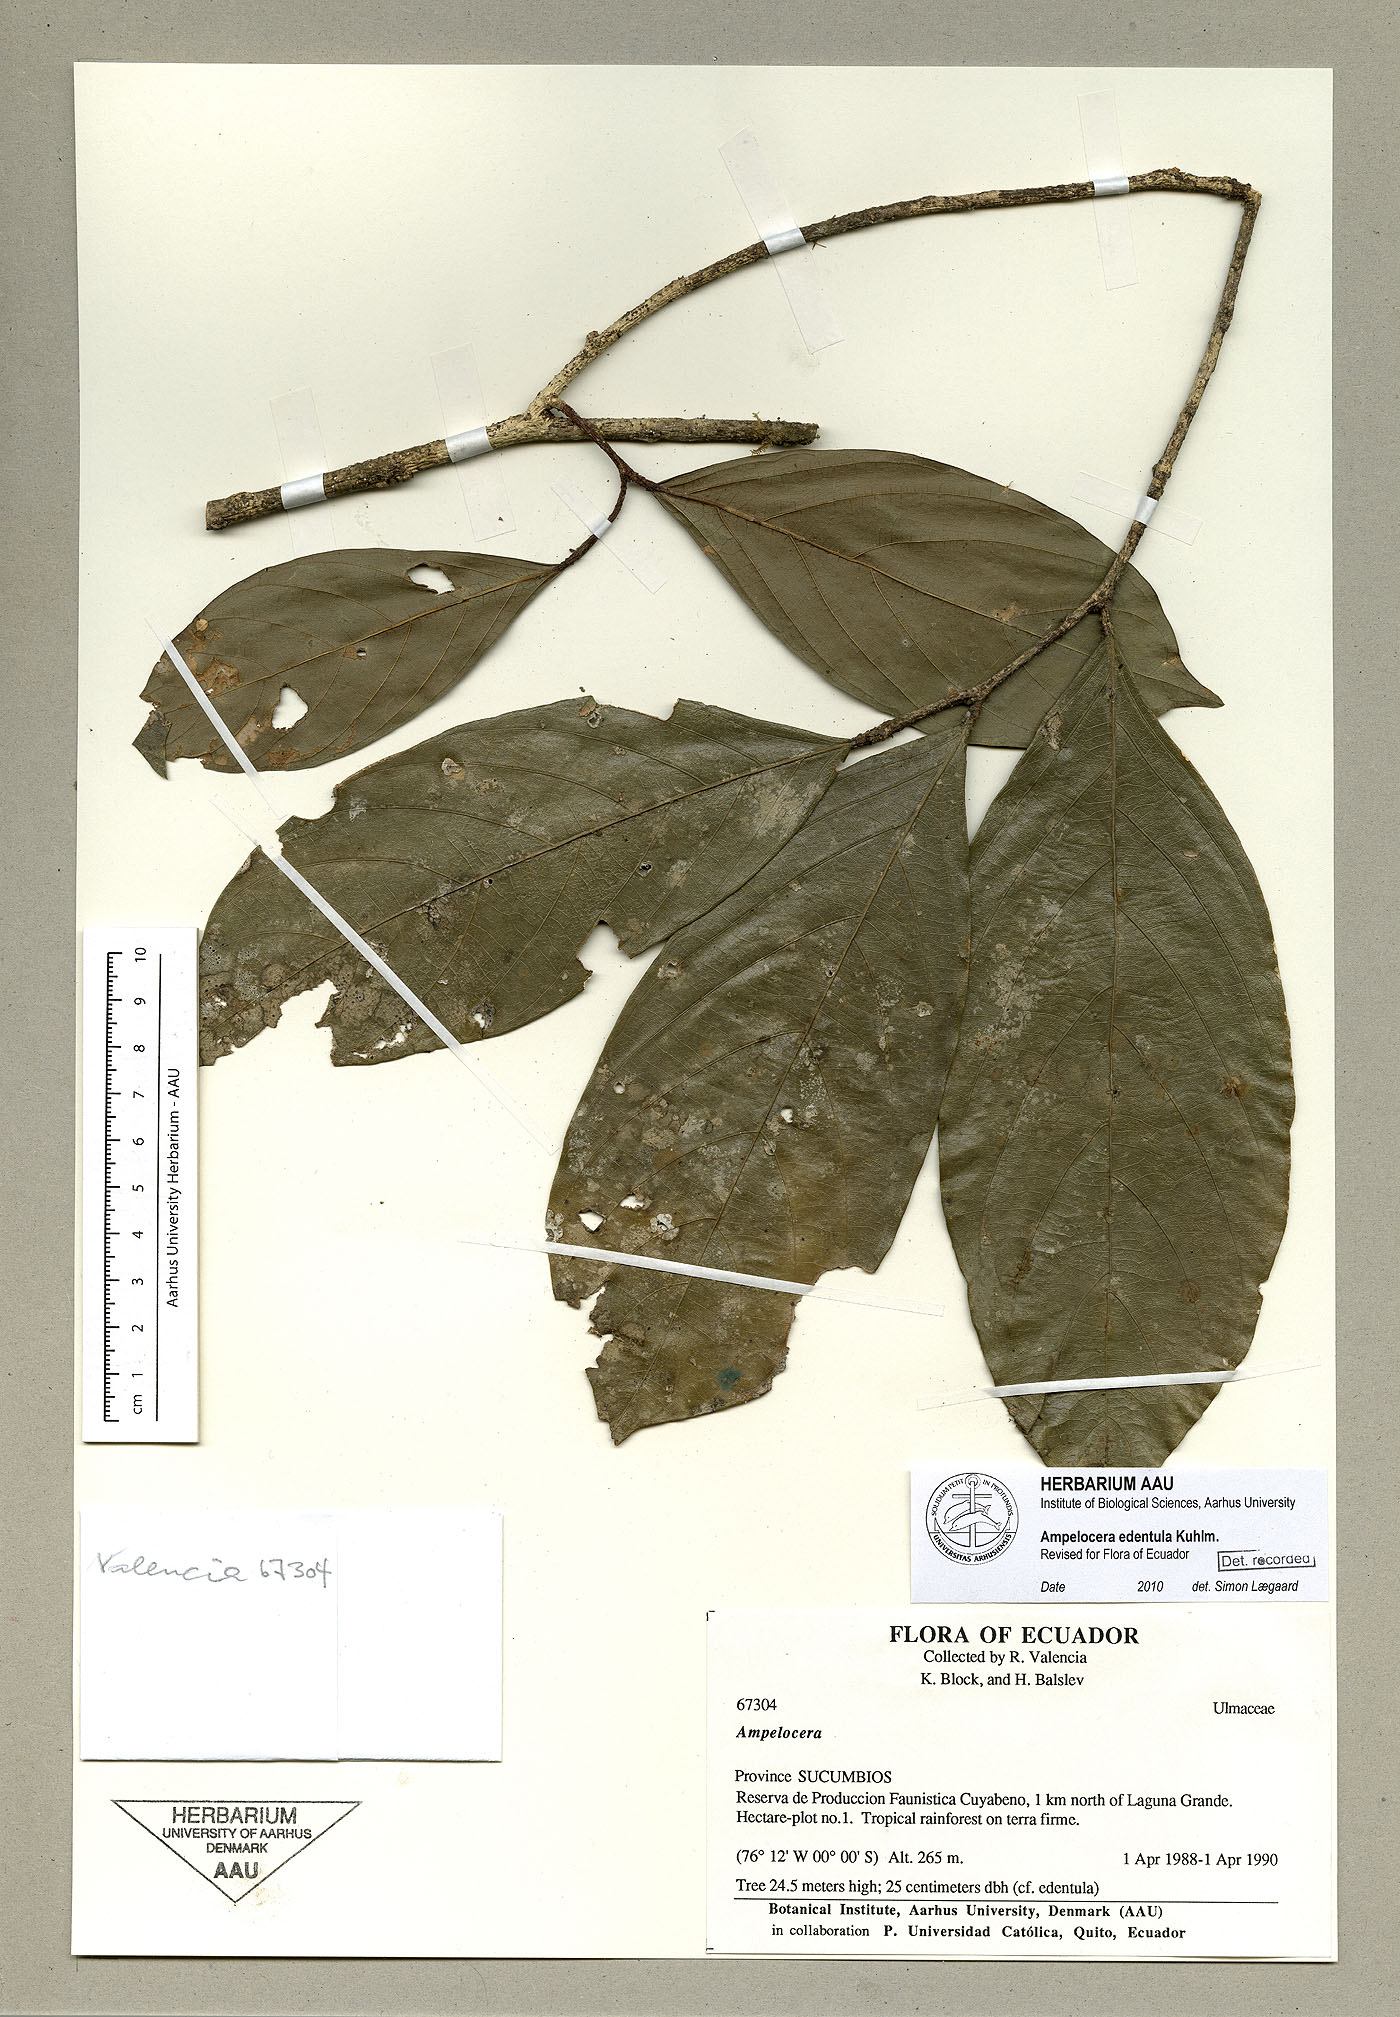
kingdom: Plantae
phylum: Tracheophyta
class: Magnoliopsida
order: Rosales
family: Cannabaceae
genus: Ampelocera
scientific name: Ampelocera edentula
